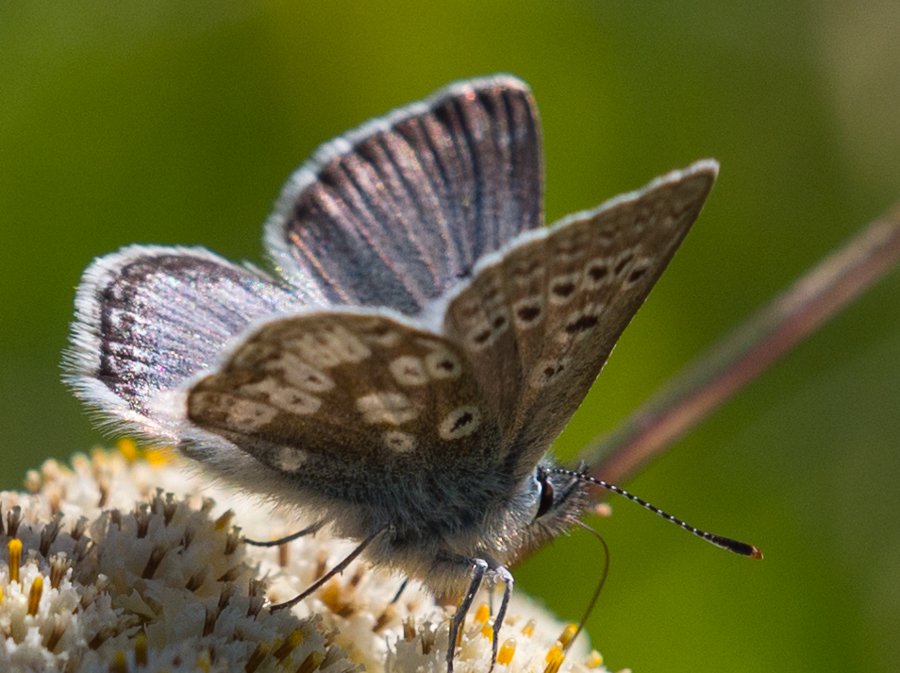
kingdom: Animalia
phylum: Arthropoda
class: Insecta
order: Lepidoptera
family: Lycaenidae
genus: Agriades
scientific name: Agriades glandon
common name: Arctic Blue
